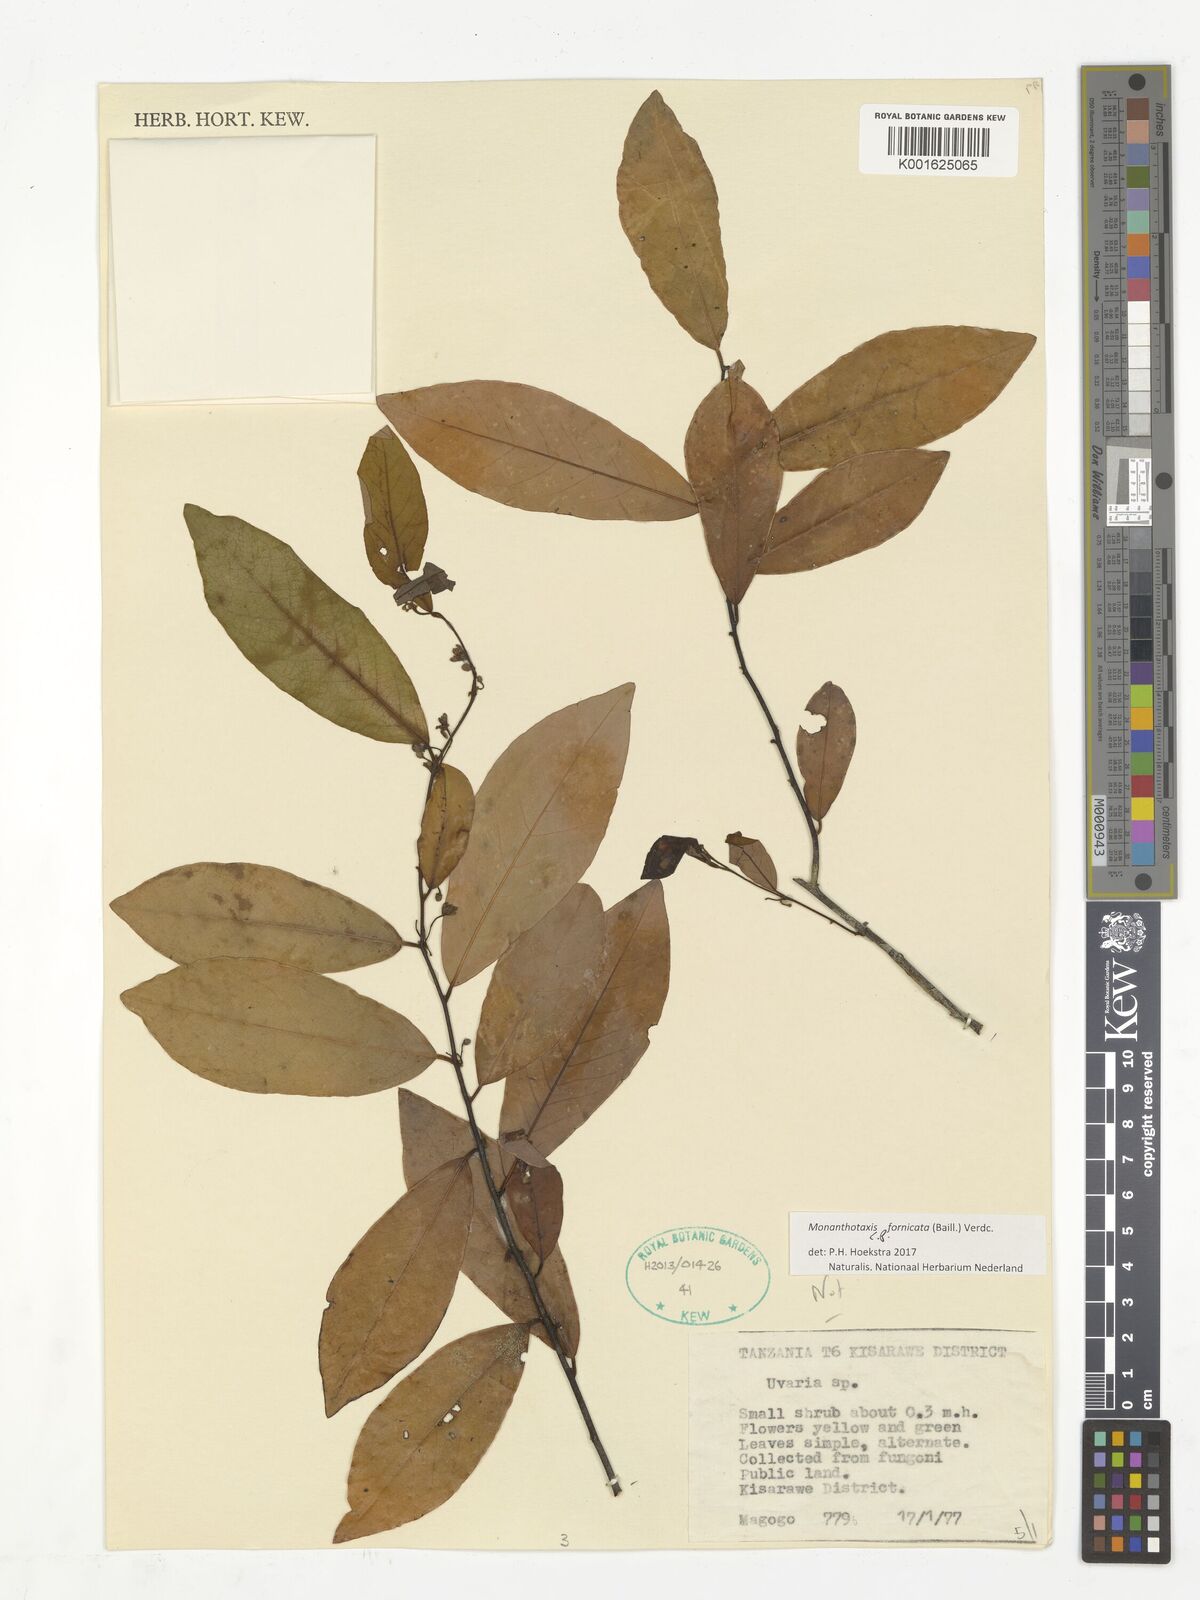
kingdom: Plantae
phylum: Tracheophyta
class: Magnoliopsida
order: Magnoliales
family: Annonaceae
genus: Monanthotaxis
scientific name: Monanthotaxis fornicata
